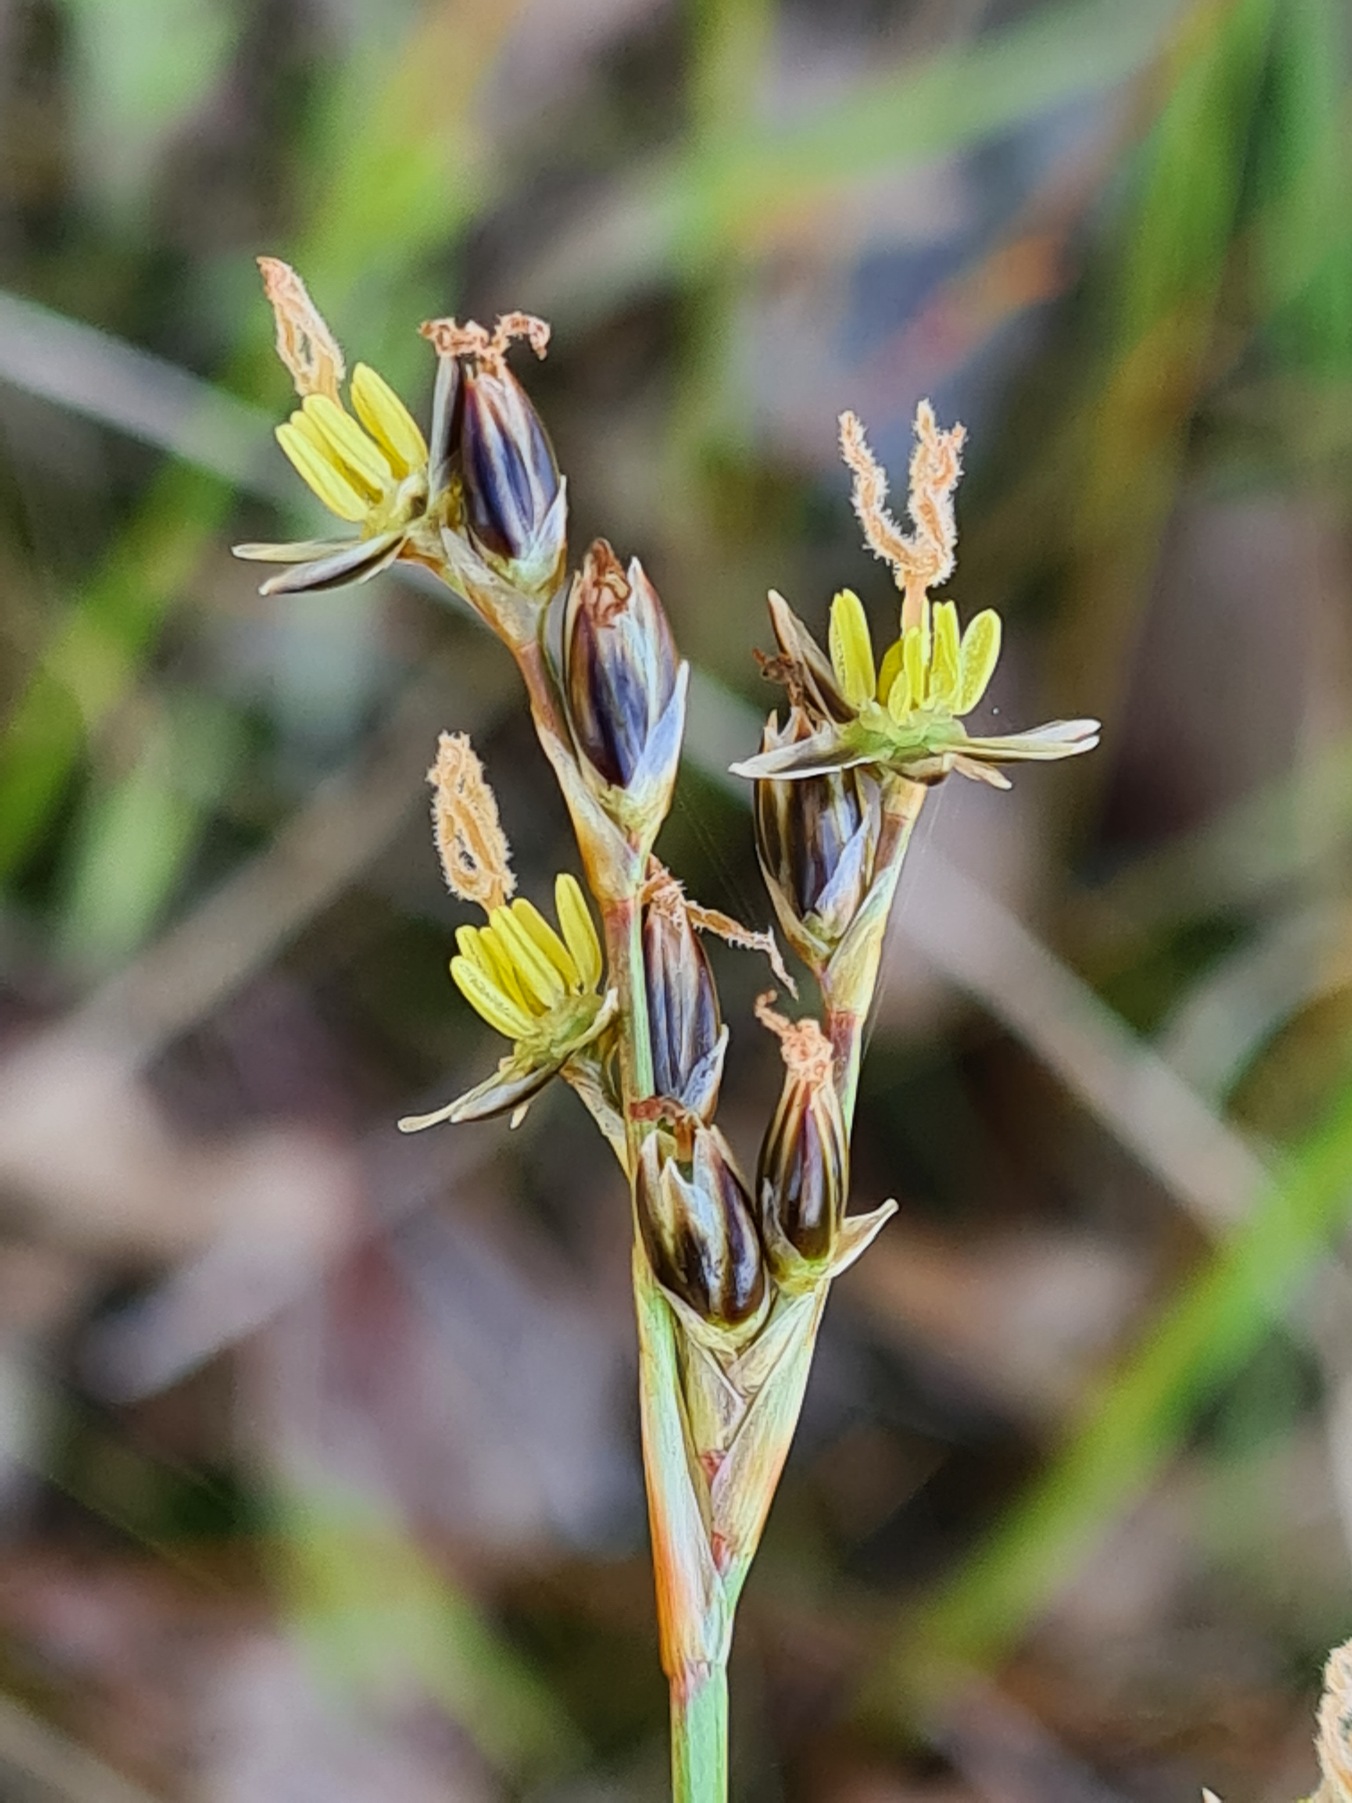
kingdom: Plantae
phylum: Tracheophyta
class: Liliopsida
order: Poales
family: Juncaceae
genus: Juncus
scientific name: Juncus squarrosus
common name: Børste-siv
